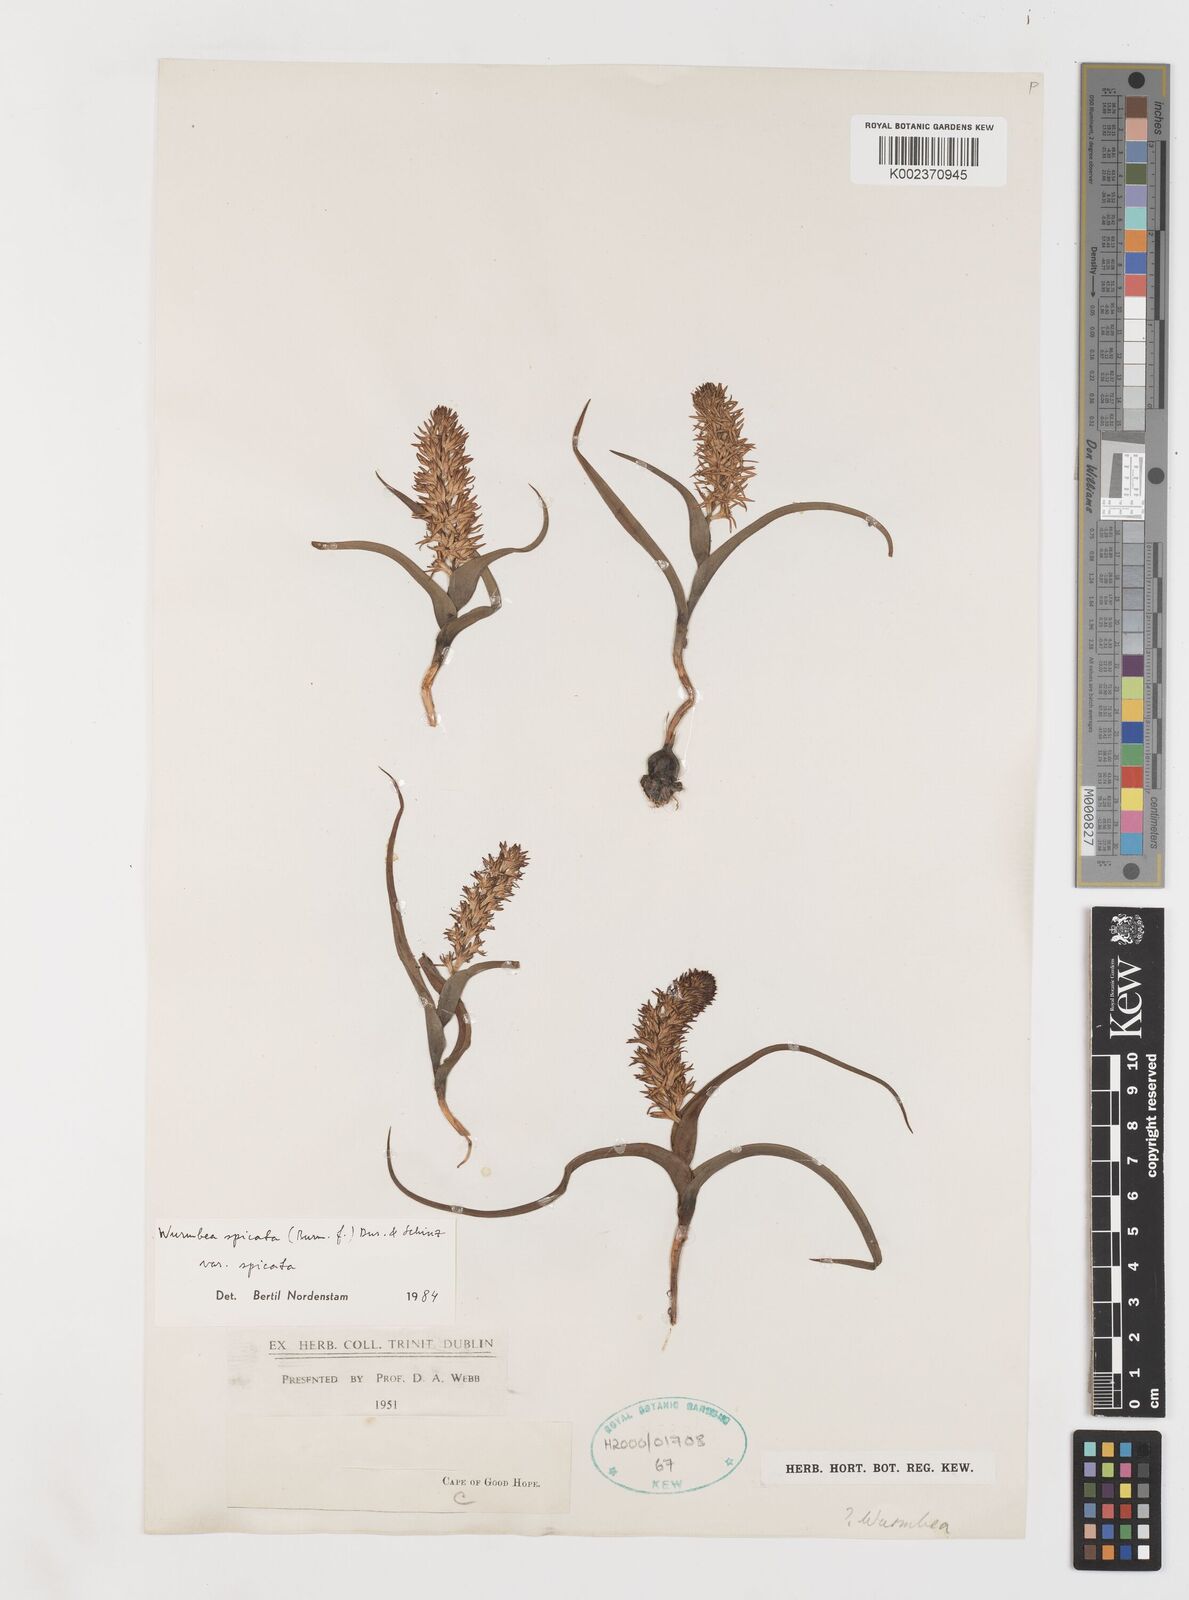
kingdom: Plantae
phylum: Tracheophyta
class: Liliopsida
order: Liliales
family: Colchicaceae
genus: Wurmbea
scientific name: Wurmbea spicata
